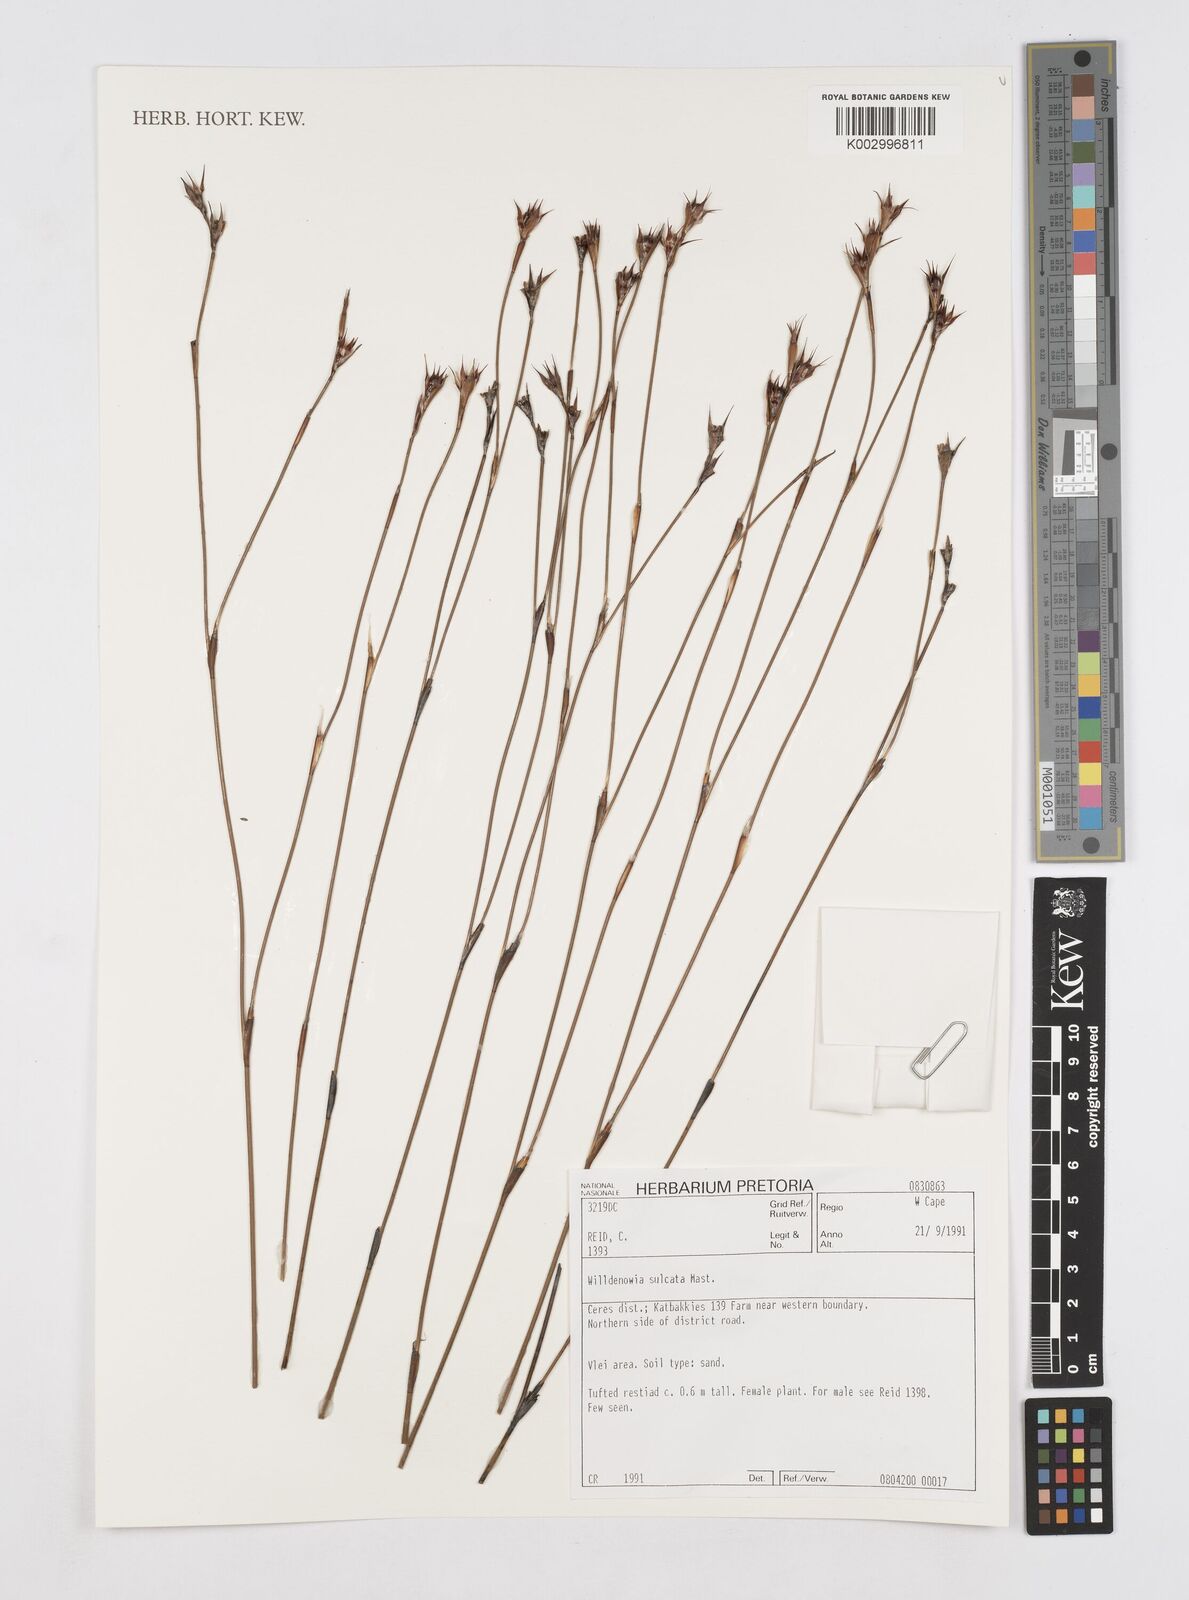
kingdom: Plantae
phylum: Tracheophyta
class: Liliopsida
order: Poales
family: Restionaceae
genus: Willdenowia
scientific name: Willdenowia sulcata
